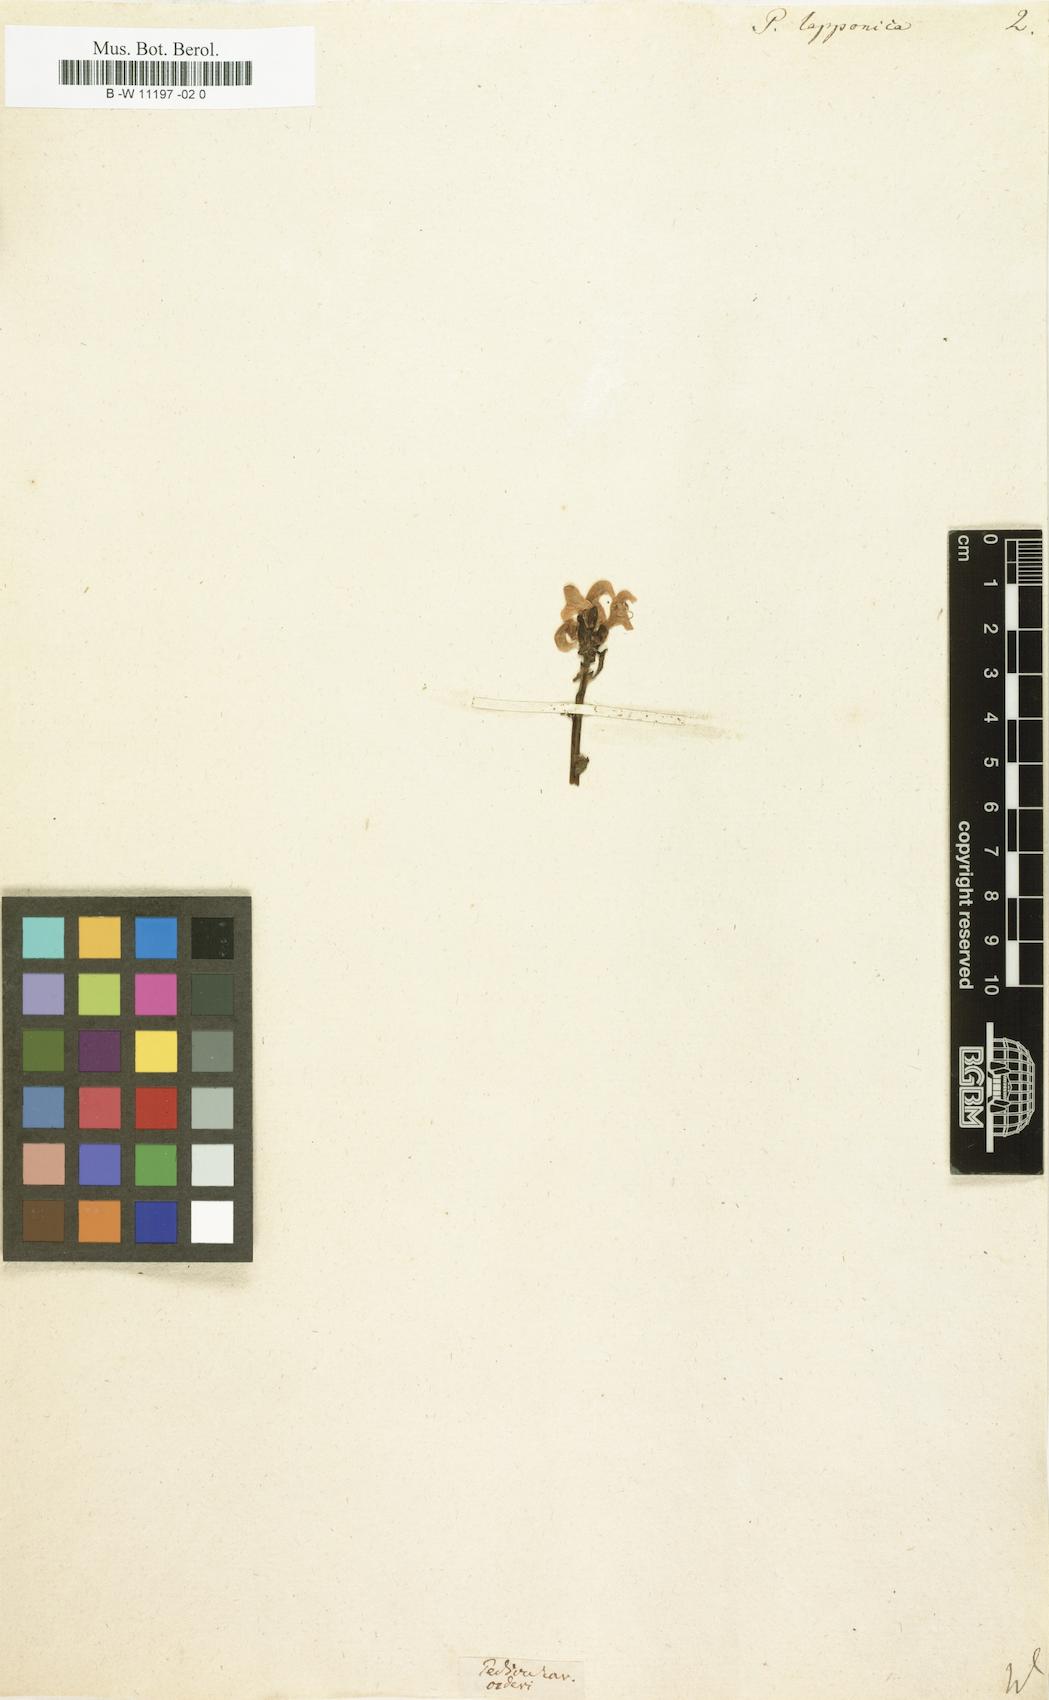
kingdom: Plantae
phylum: Tracheophyta
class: Magnoliopsida
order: Lamiales
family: Orobanchaceae
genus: Pedicularis
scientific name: Pedicularis lapponica
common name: Lapland lousewort
